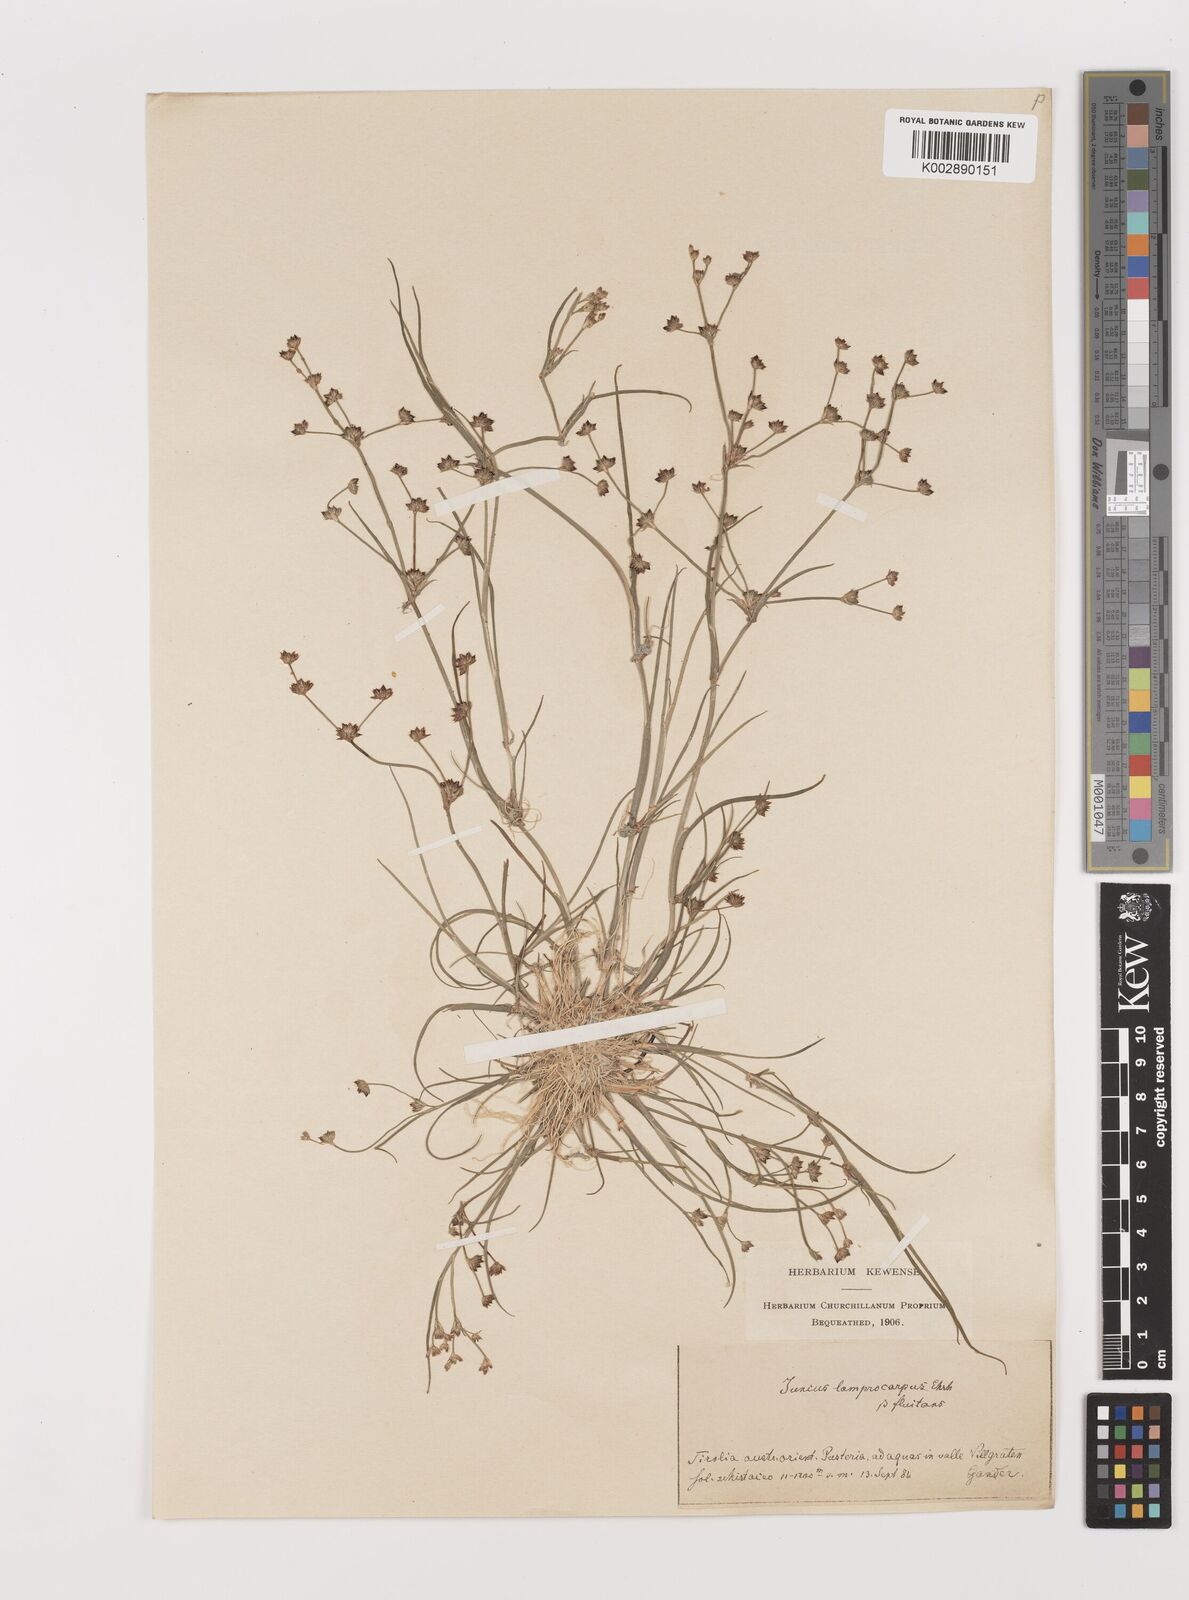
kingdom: Plantae
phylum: Tracheophyta
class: Liliopsida
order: Poales
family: Juncaceae
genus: Juncus
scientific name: Juncus articulatus
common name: Jointed rush
